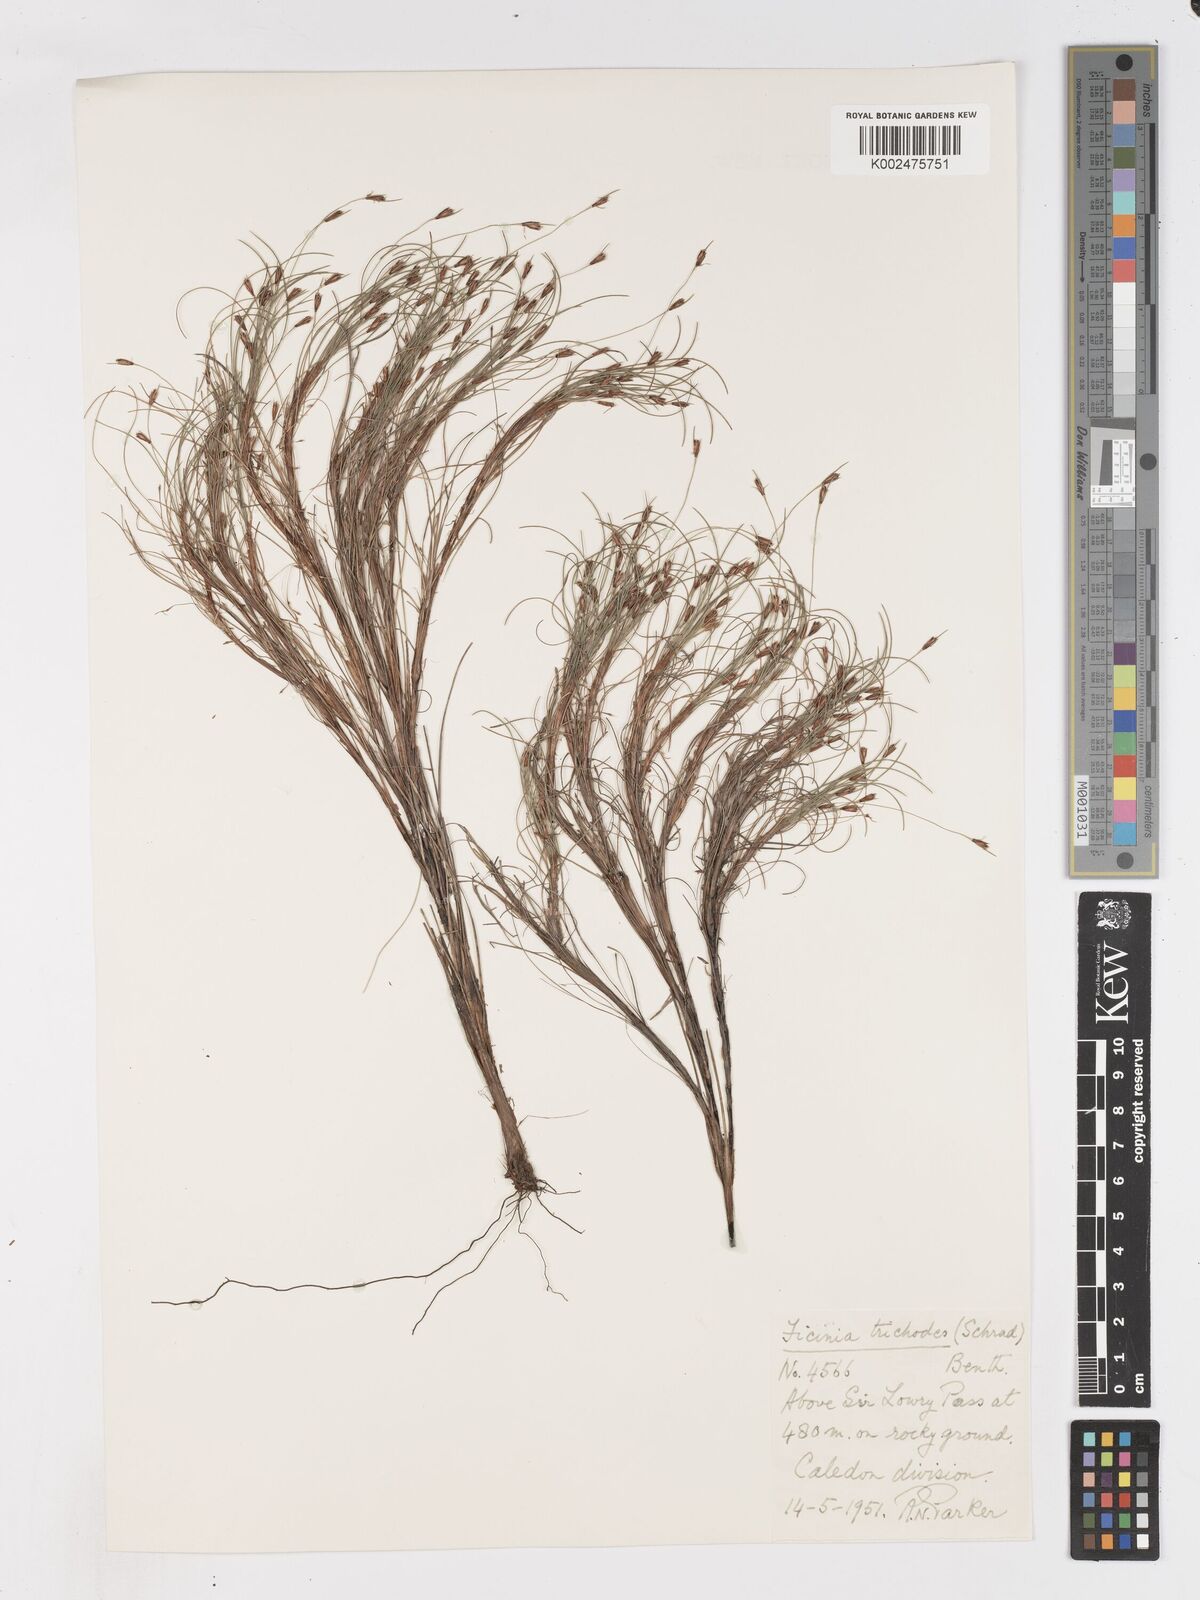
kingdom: Plantae
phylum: Tracheophyta
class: Liliopsida
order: Poales
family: Cyperaceae
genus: Ficinia
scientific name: Ficinia ramosissima
